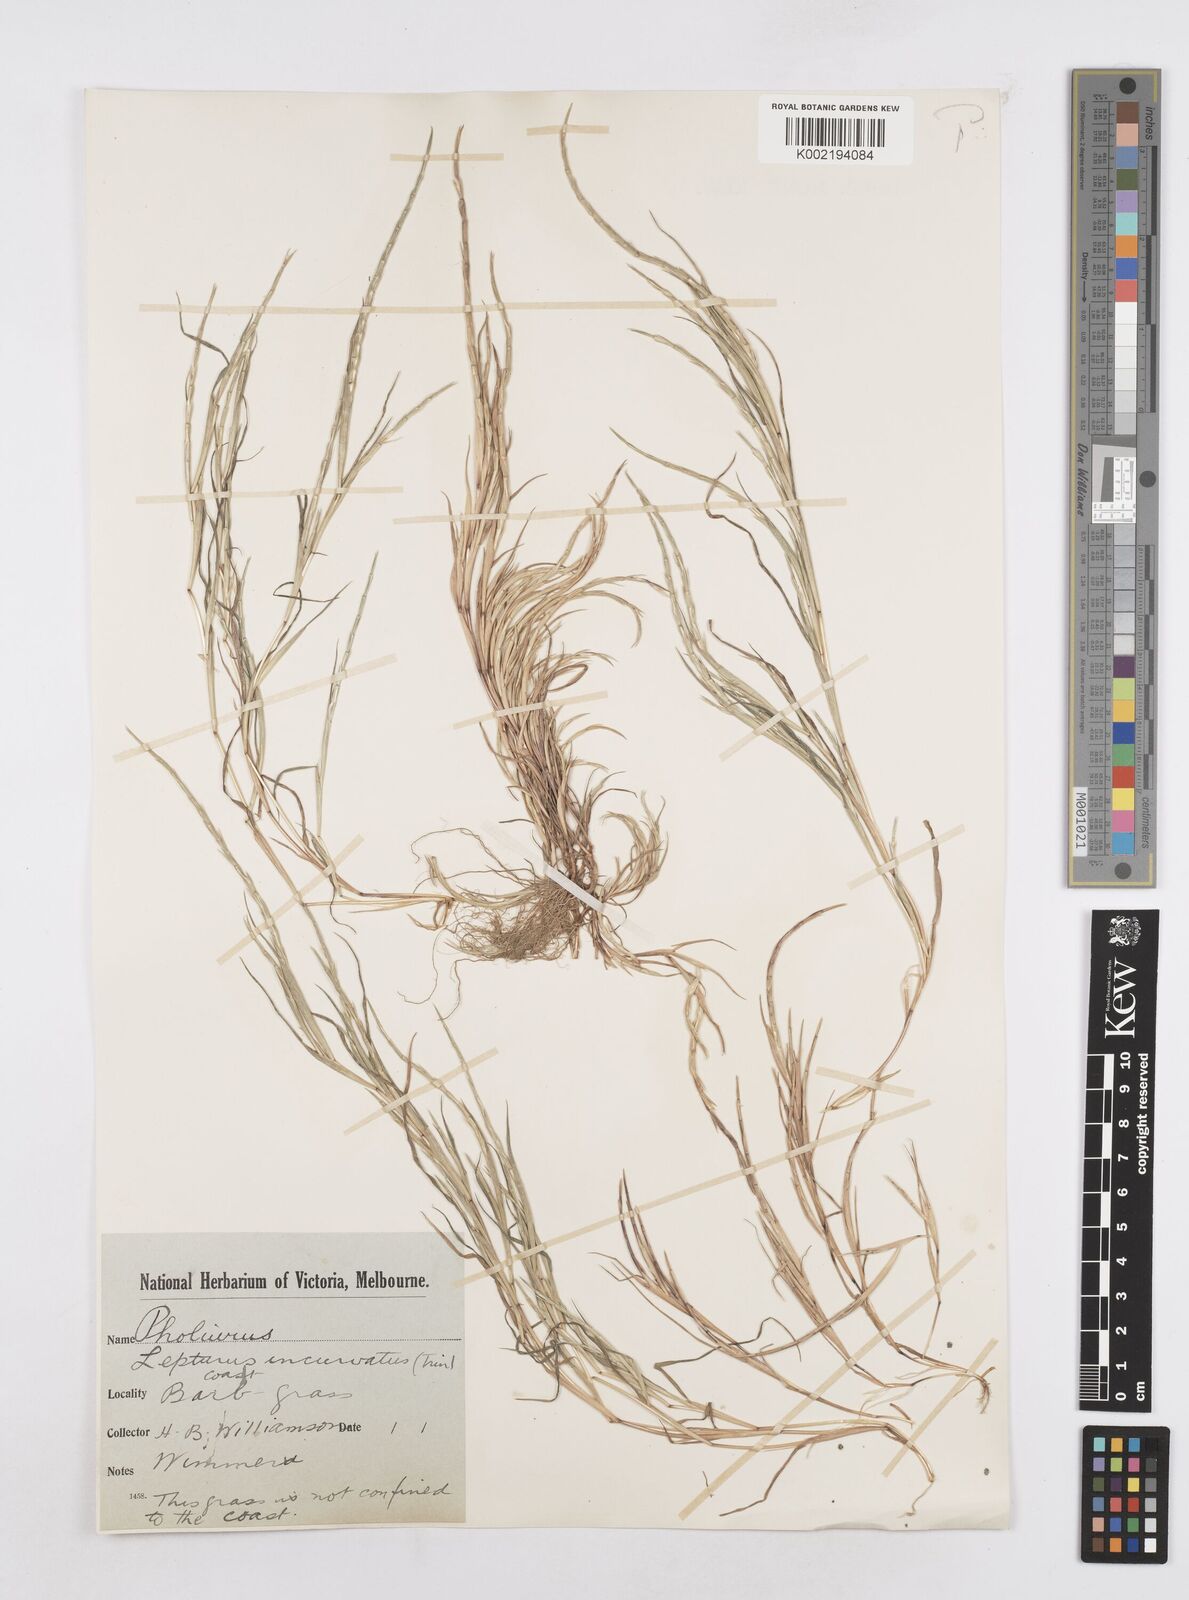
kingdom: Plantae
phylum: Tracheophyta
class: Liliopsida
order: Poales
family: Poaceae
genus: Parapholis
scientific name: Parapholis incurva
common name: Curved sicklegrass
